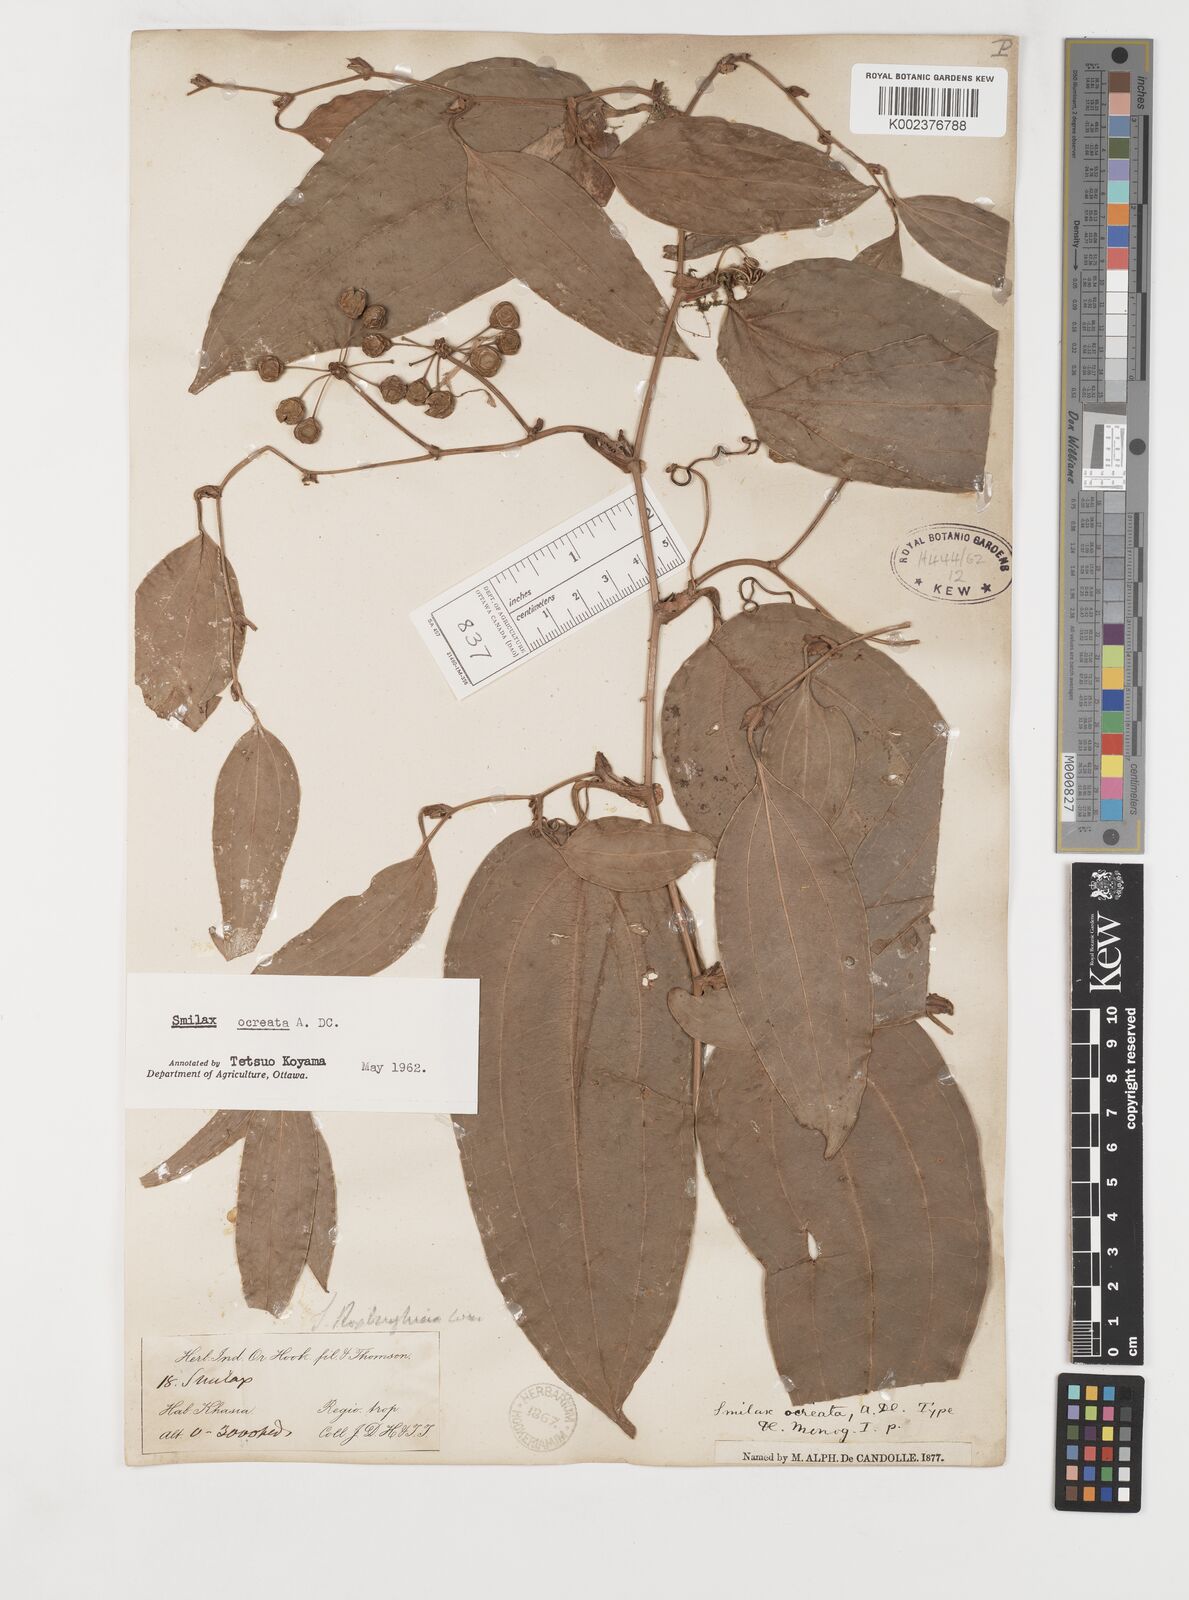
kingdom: Plantae
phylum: Tracheophyta
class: Liliopsida
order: Liliales
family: Smilacaceae
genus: Smilax
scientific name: Smilax ocreata
